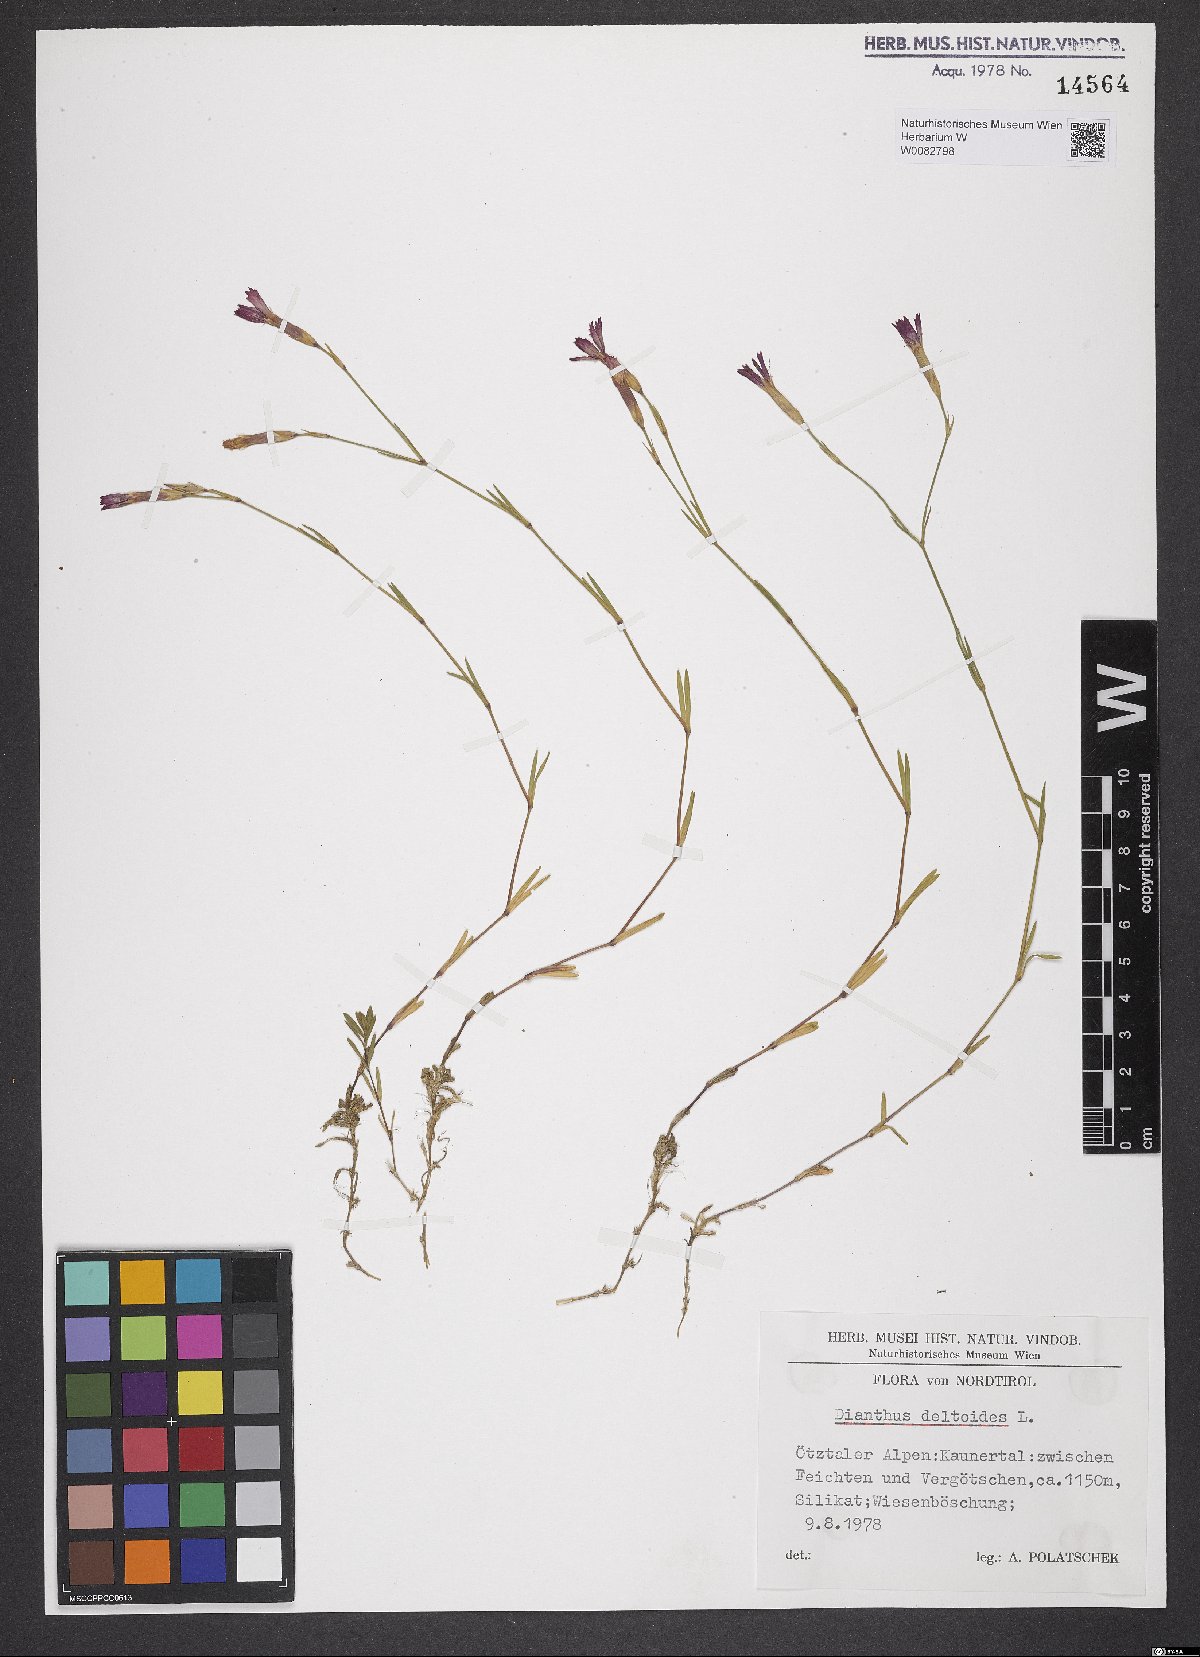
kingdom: Plantae
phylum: Tracheophyta
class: Magnoliopsida
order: Caryophyllales
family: Caryophyllaceae
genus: Dianthus
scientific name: Dianthus deltoides
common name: Maiden pink
